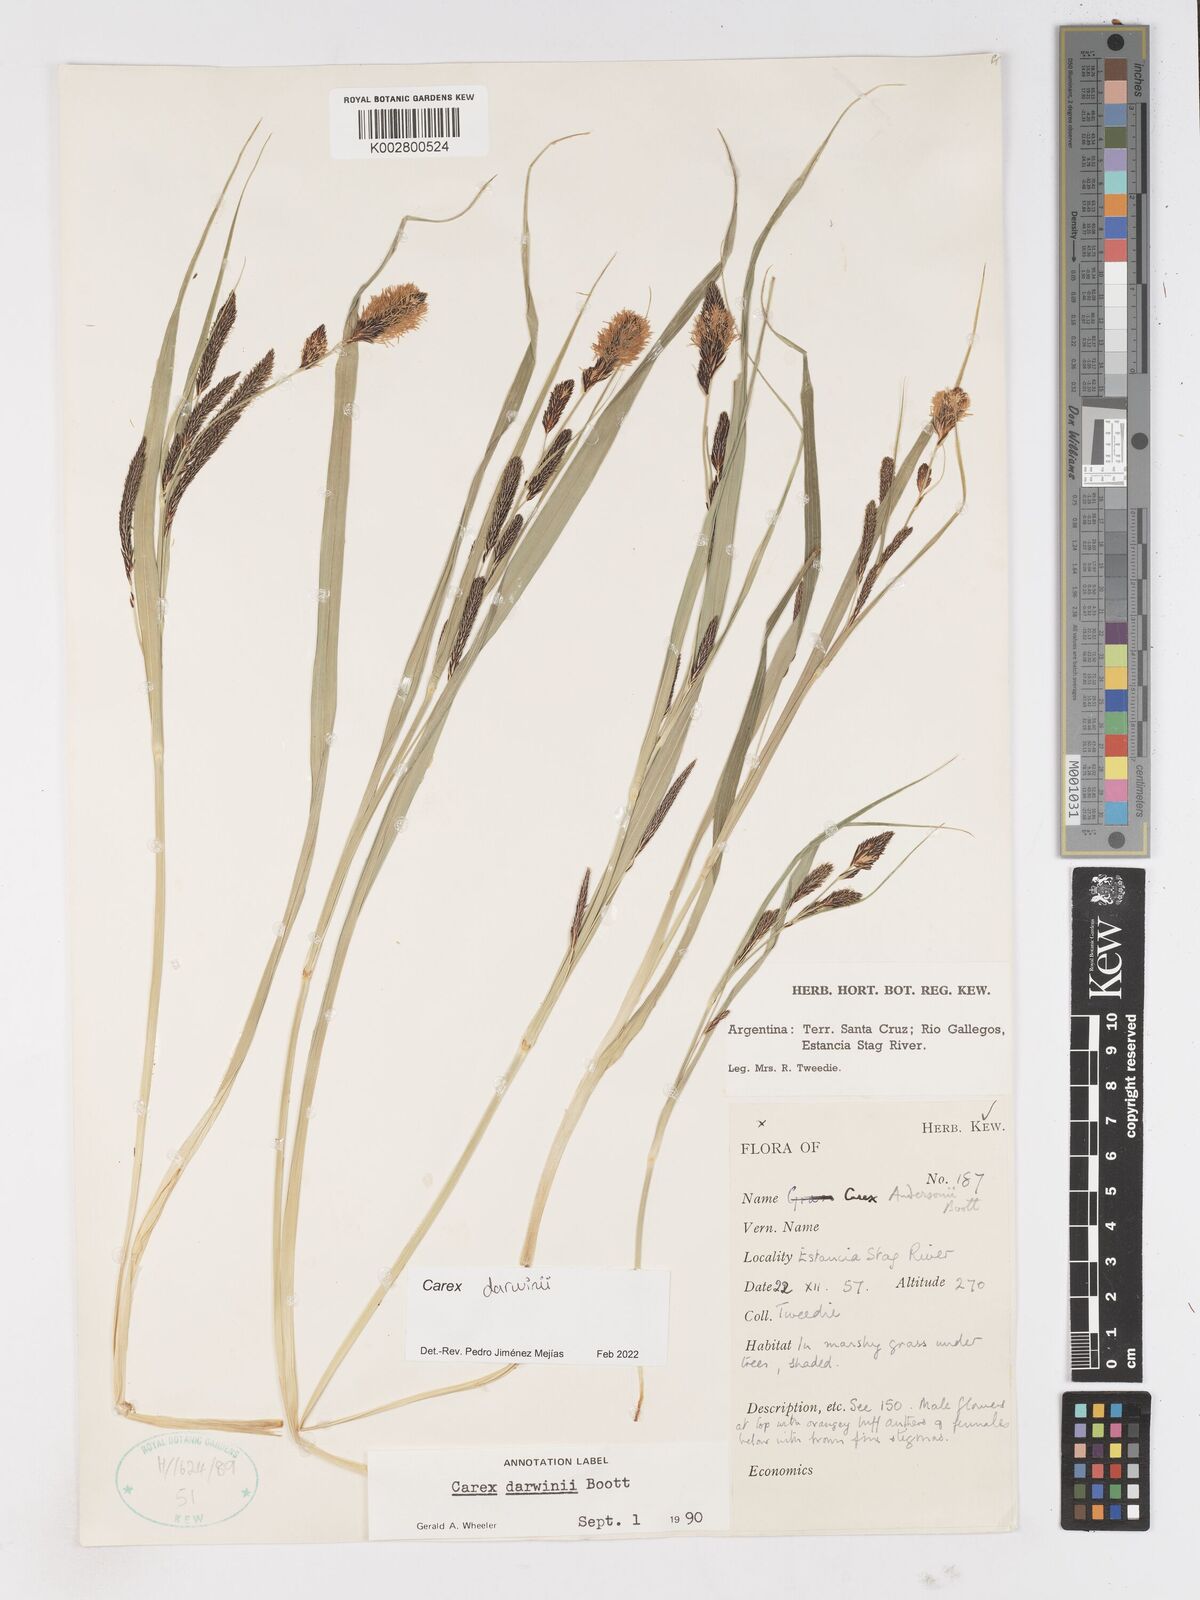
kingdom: Plantae
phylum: Tracheophyta
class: Liliopsida
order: Poales
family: Cyperaceae
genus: Carex
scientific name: Carex darwinii
